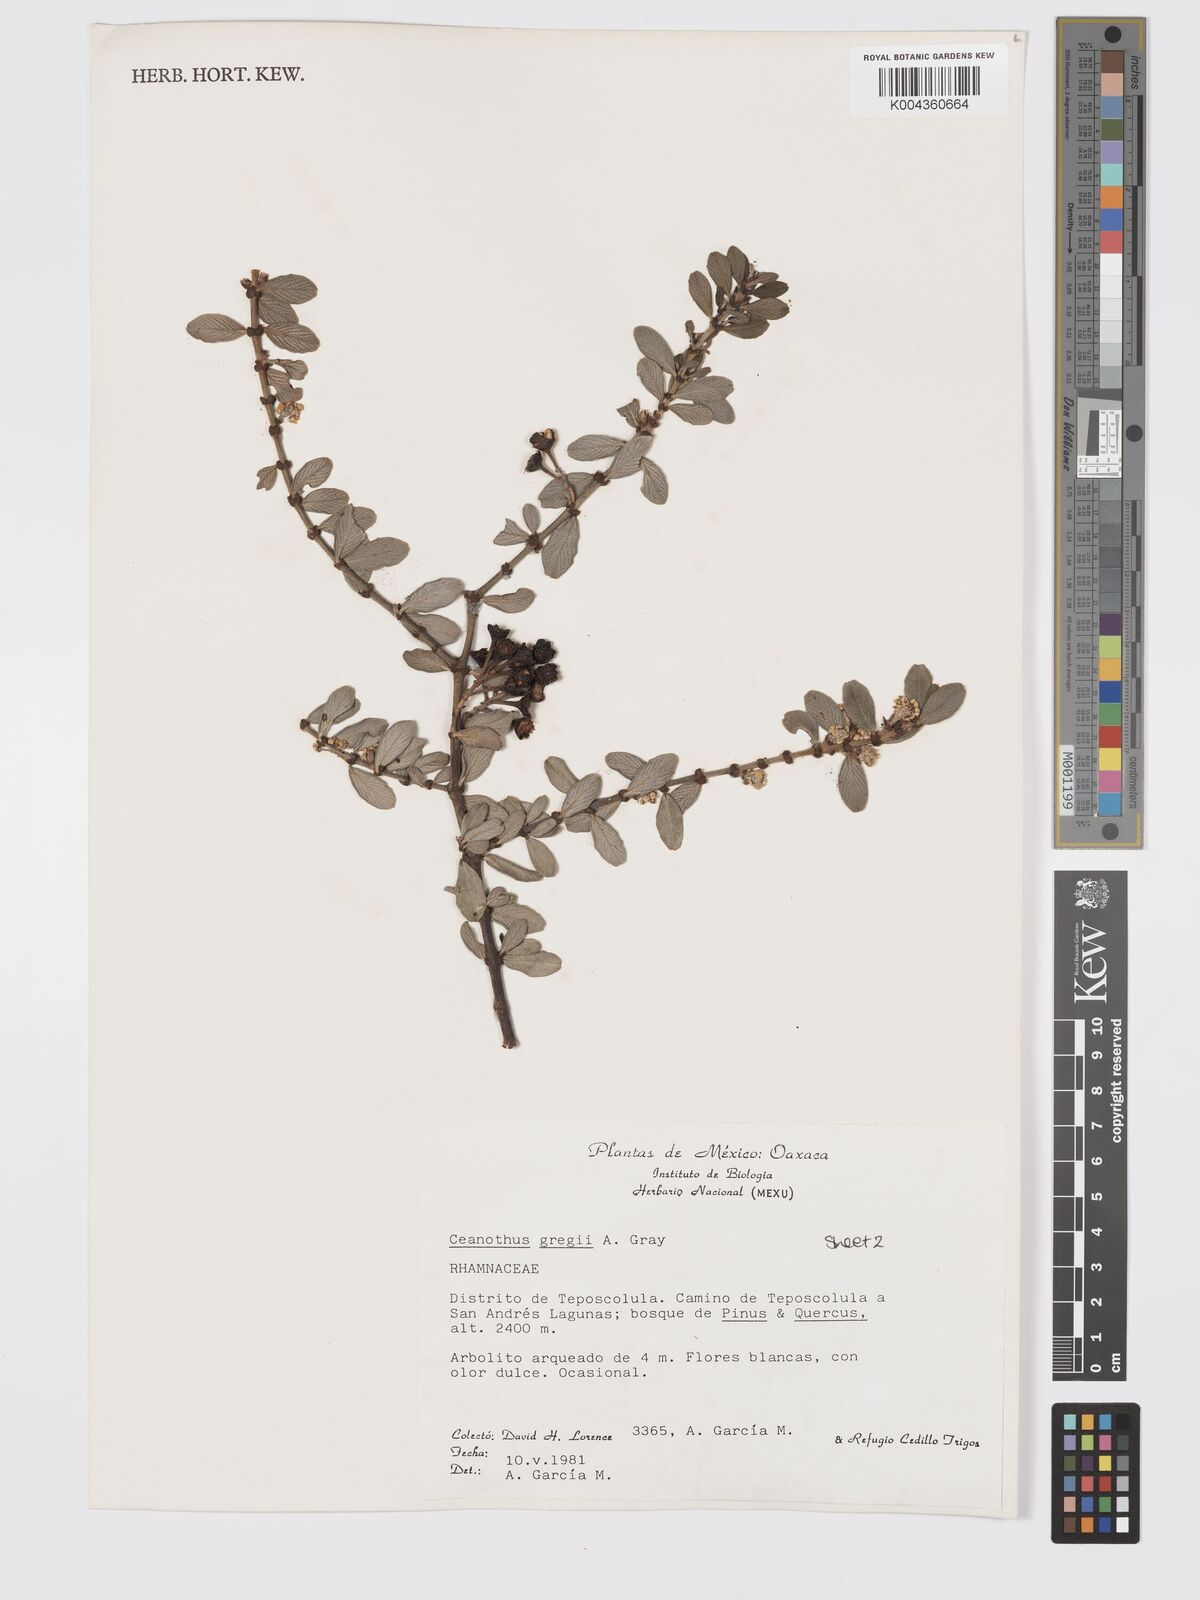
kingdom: Plantae
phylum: Tracheophyta
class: Magnoliopsida
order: Rosales
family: Rhamnaceae
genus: Ceanothus
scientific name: Ceanothus pauciflorus
